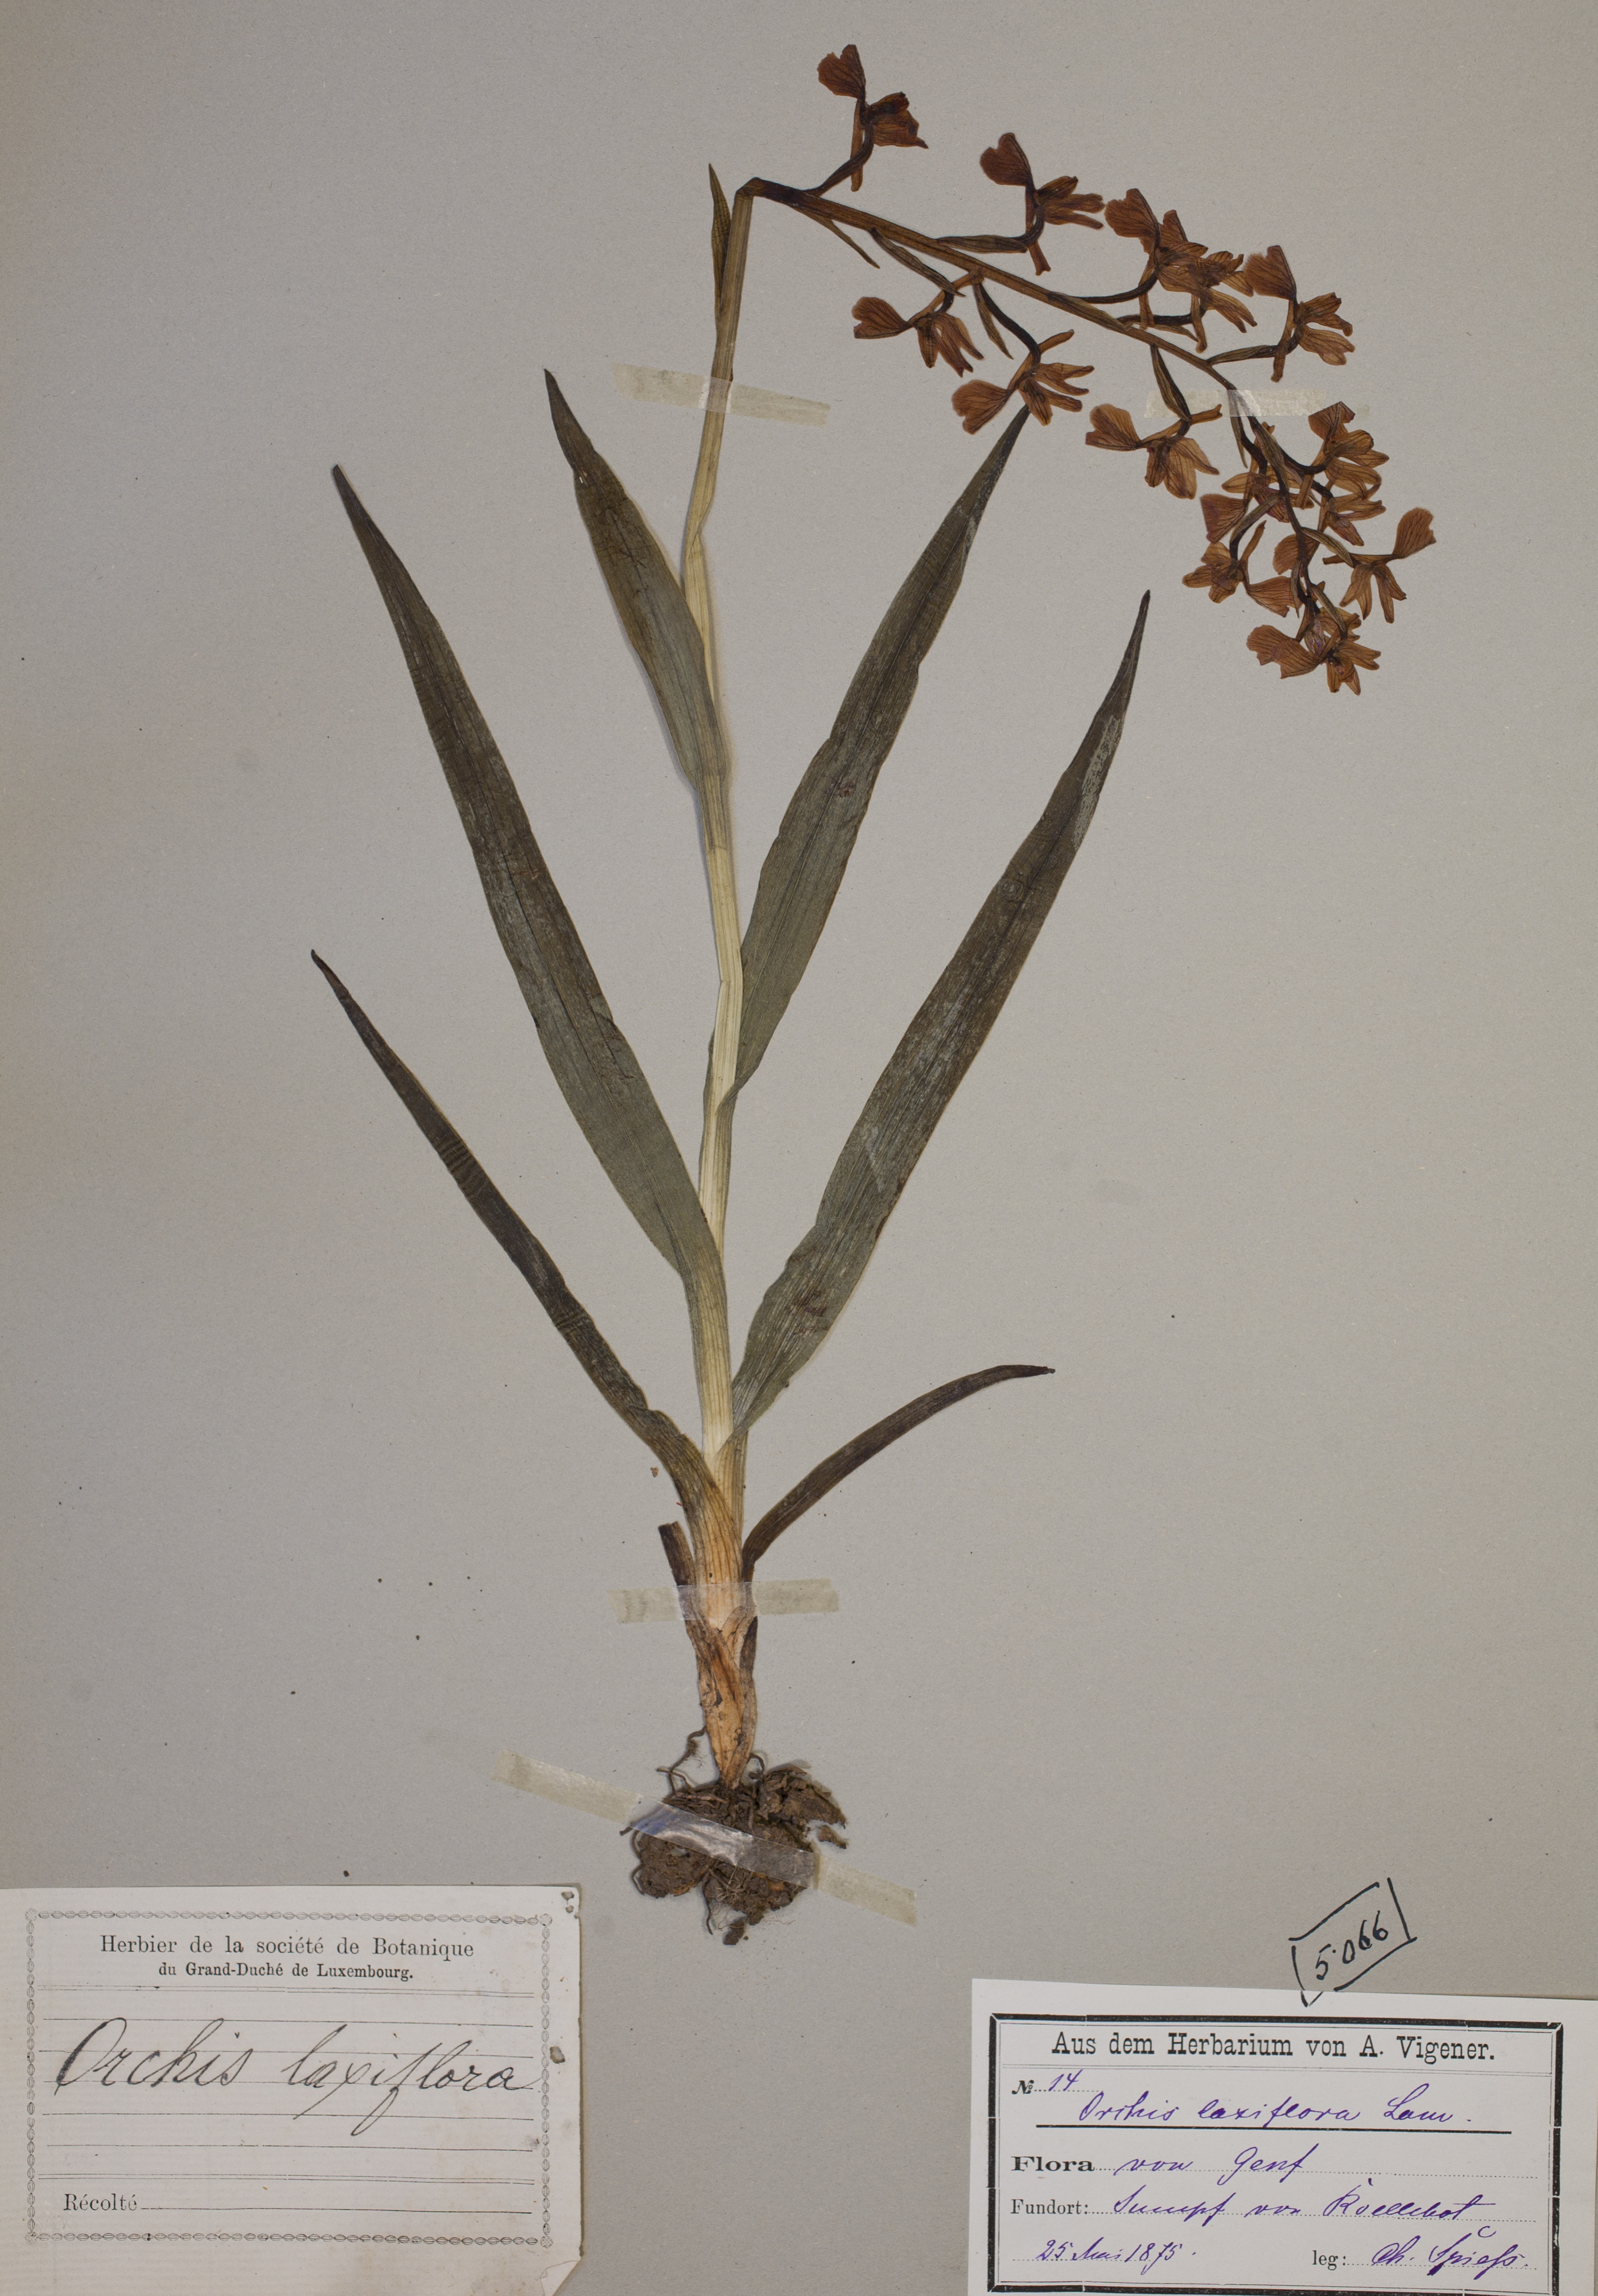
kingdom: Plantae
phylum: Tracheophyta
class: Liliopsida
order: Asparagales
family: Orchidaceae
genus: Anacamptis
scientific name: Anacamptis laxiflora
